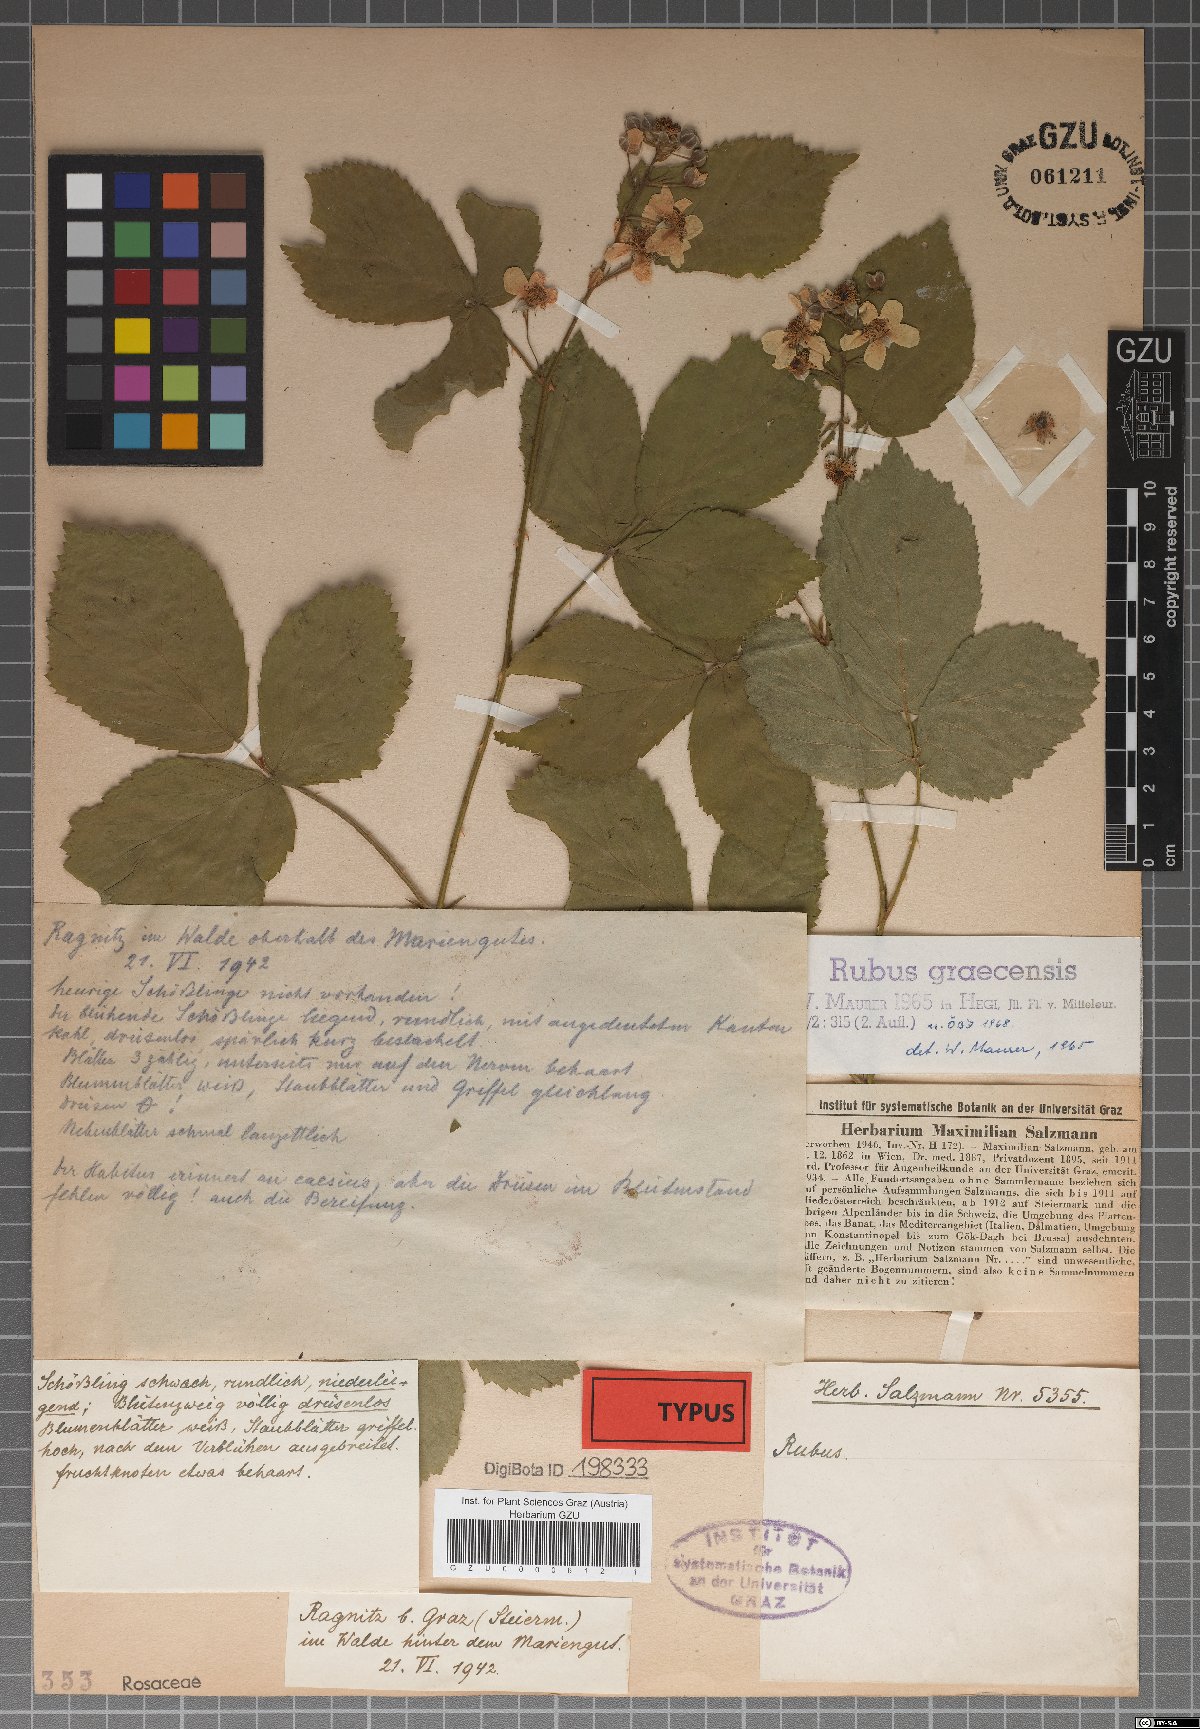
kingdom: Plantae
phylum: Tracheophyta
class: Magnoliopsida
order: Rosales
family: Rosaceae
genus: Rubus
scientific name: Rubus graecensis
